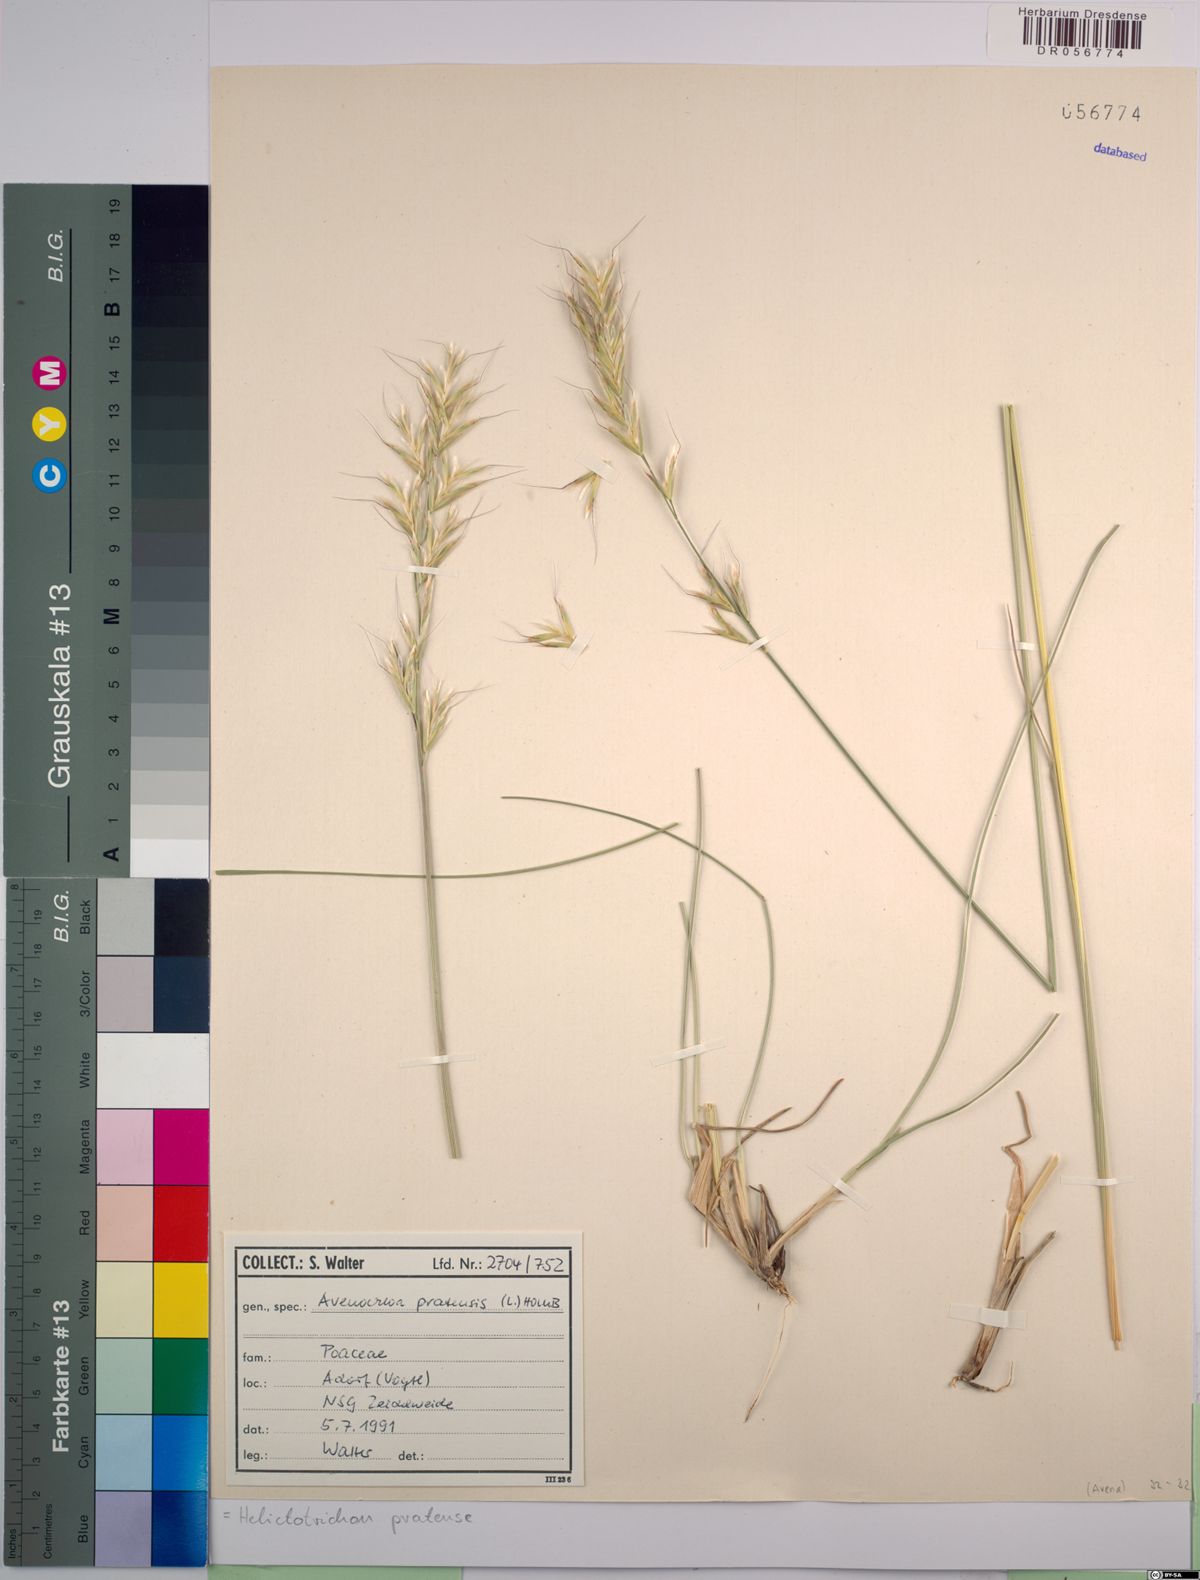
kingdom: Plantae
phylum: Tracheophyta
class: Liliopsida
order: Poales
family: Poaceae
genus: Helictochloa
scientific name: Helictochloa pratensis
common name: Meadow oat grass
